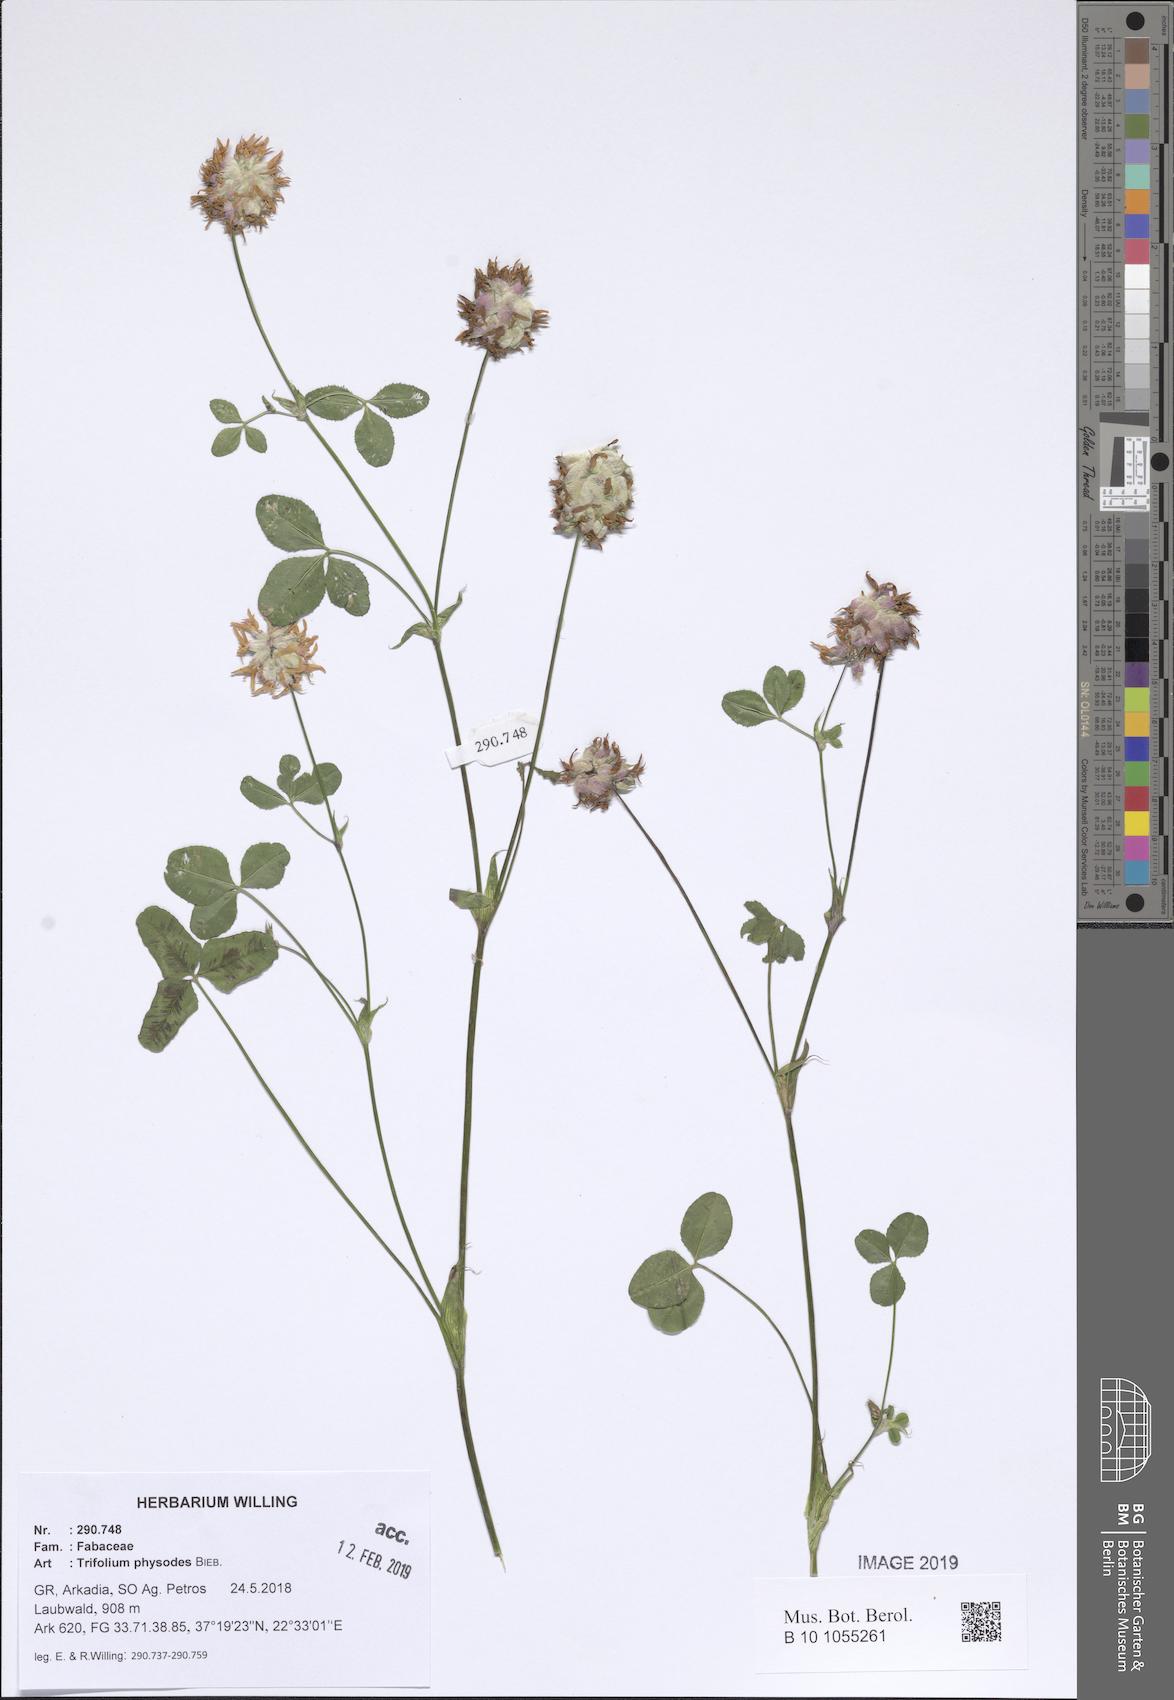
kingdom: Plantae
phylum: Tracheophyta
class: Magnoliopsida
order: Fabales
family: Fabaceae
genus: Trifolium
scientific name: Trifolium physodes
